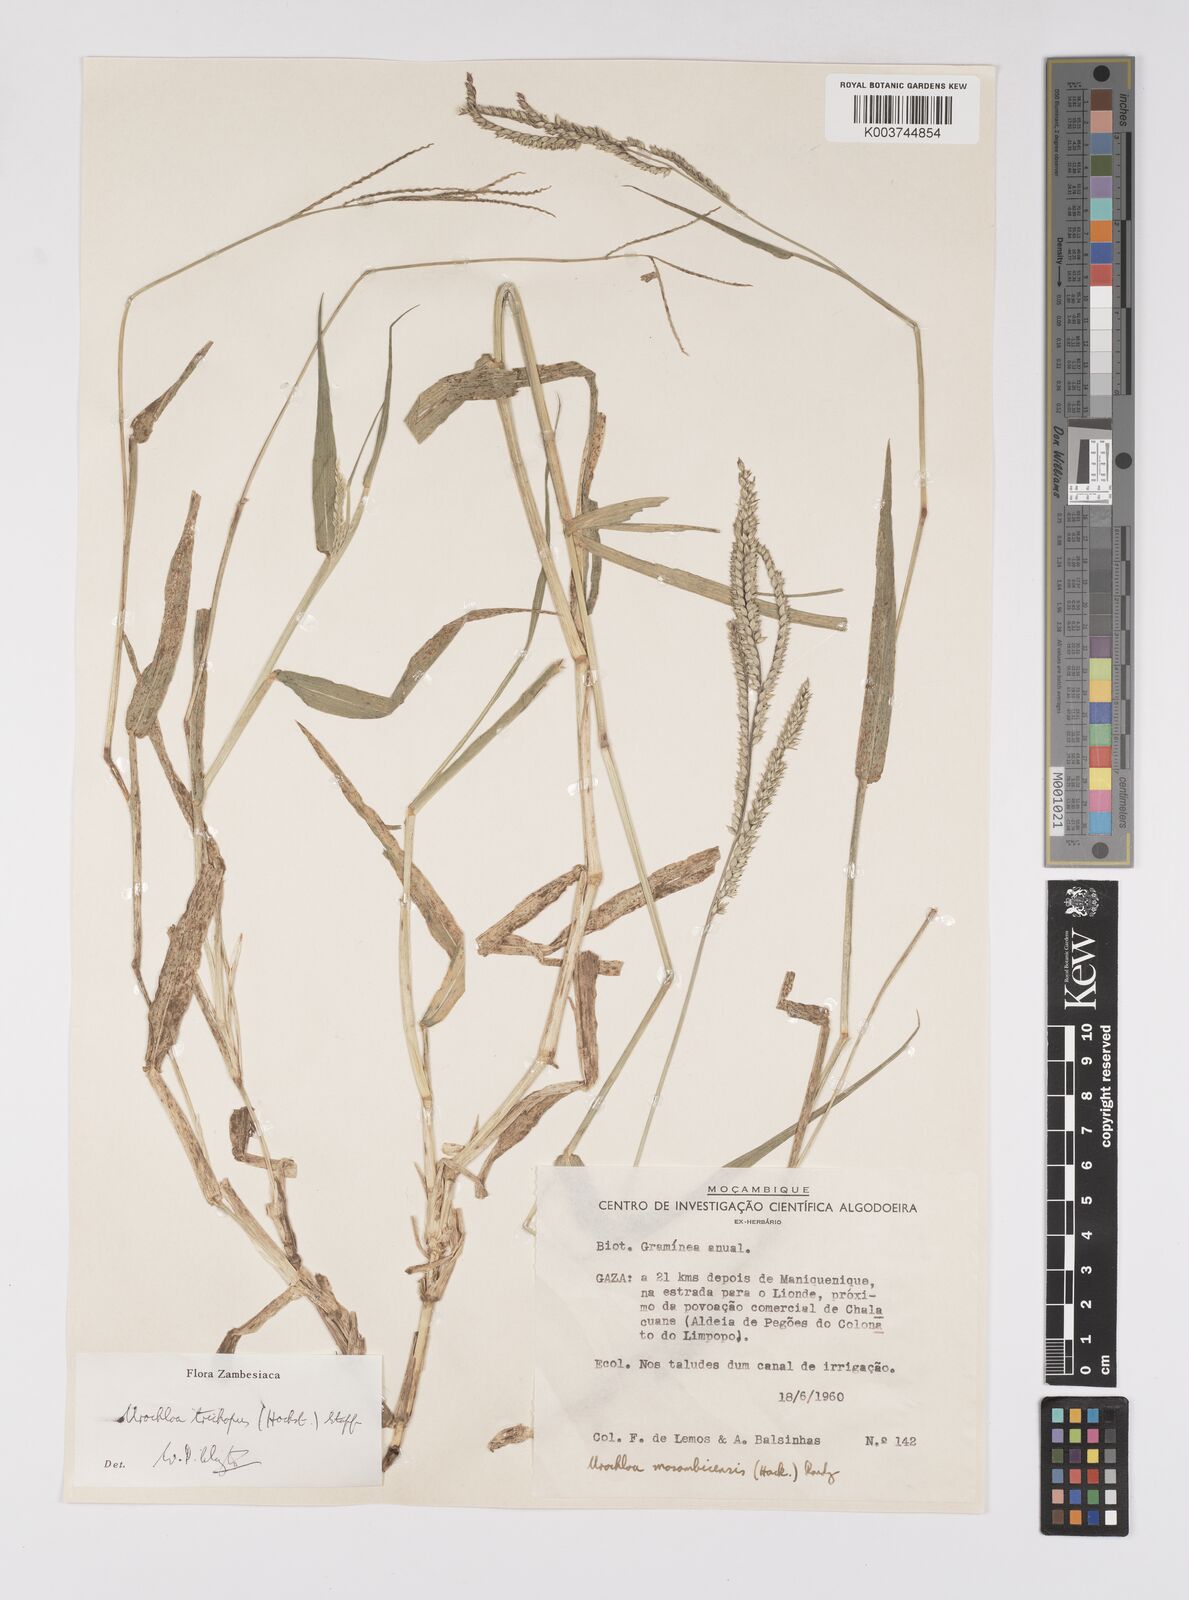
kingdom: Plantae
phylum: Tracheophyta
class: Liliopsida
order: Poales
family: Poaceae
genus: Urochloa
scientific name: Urochloa trichopus
